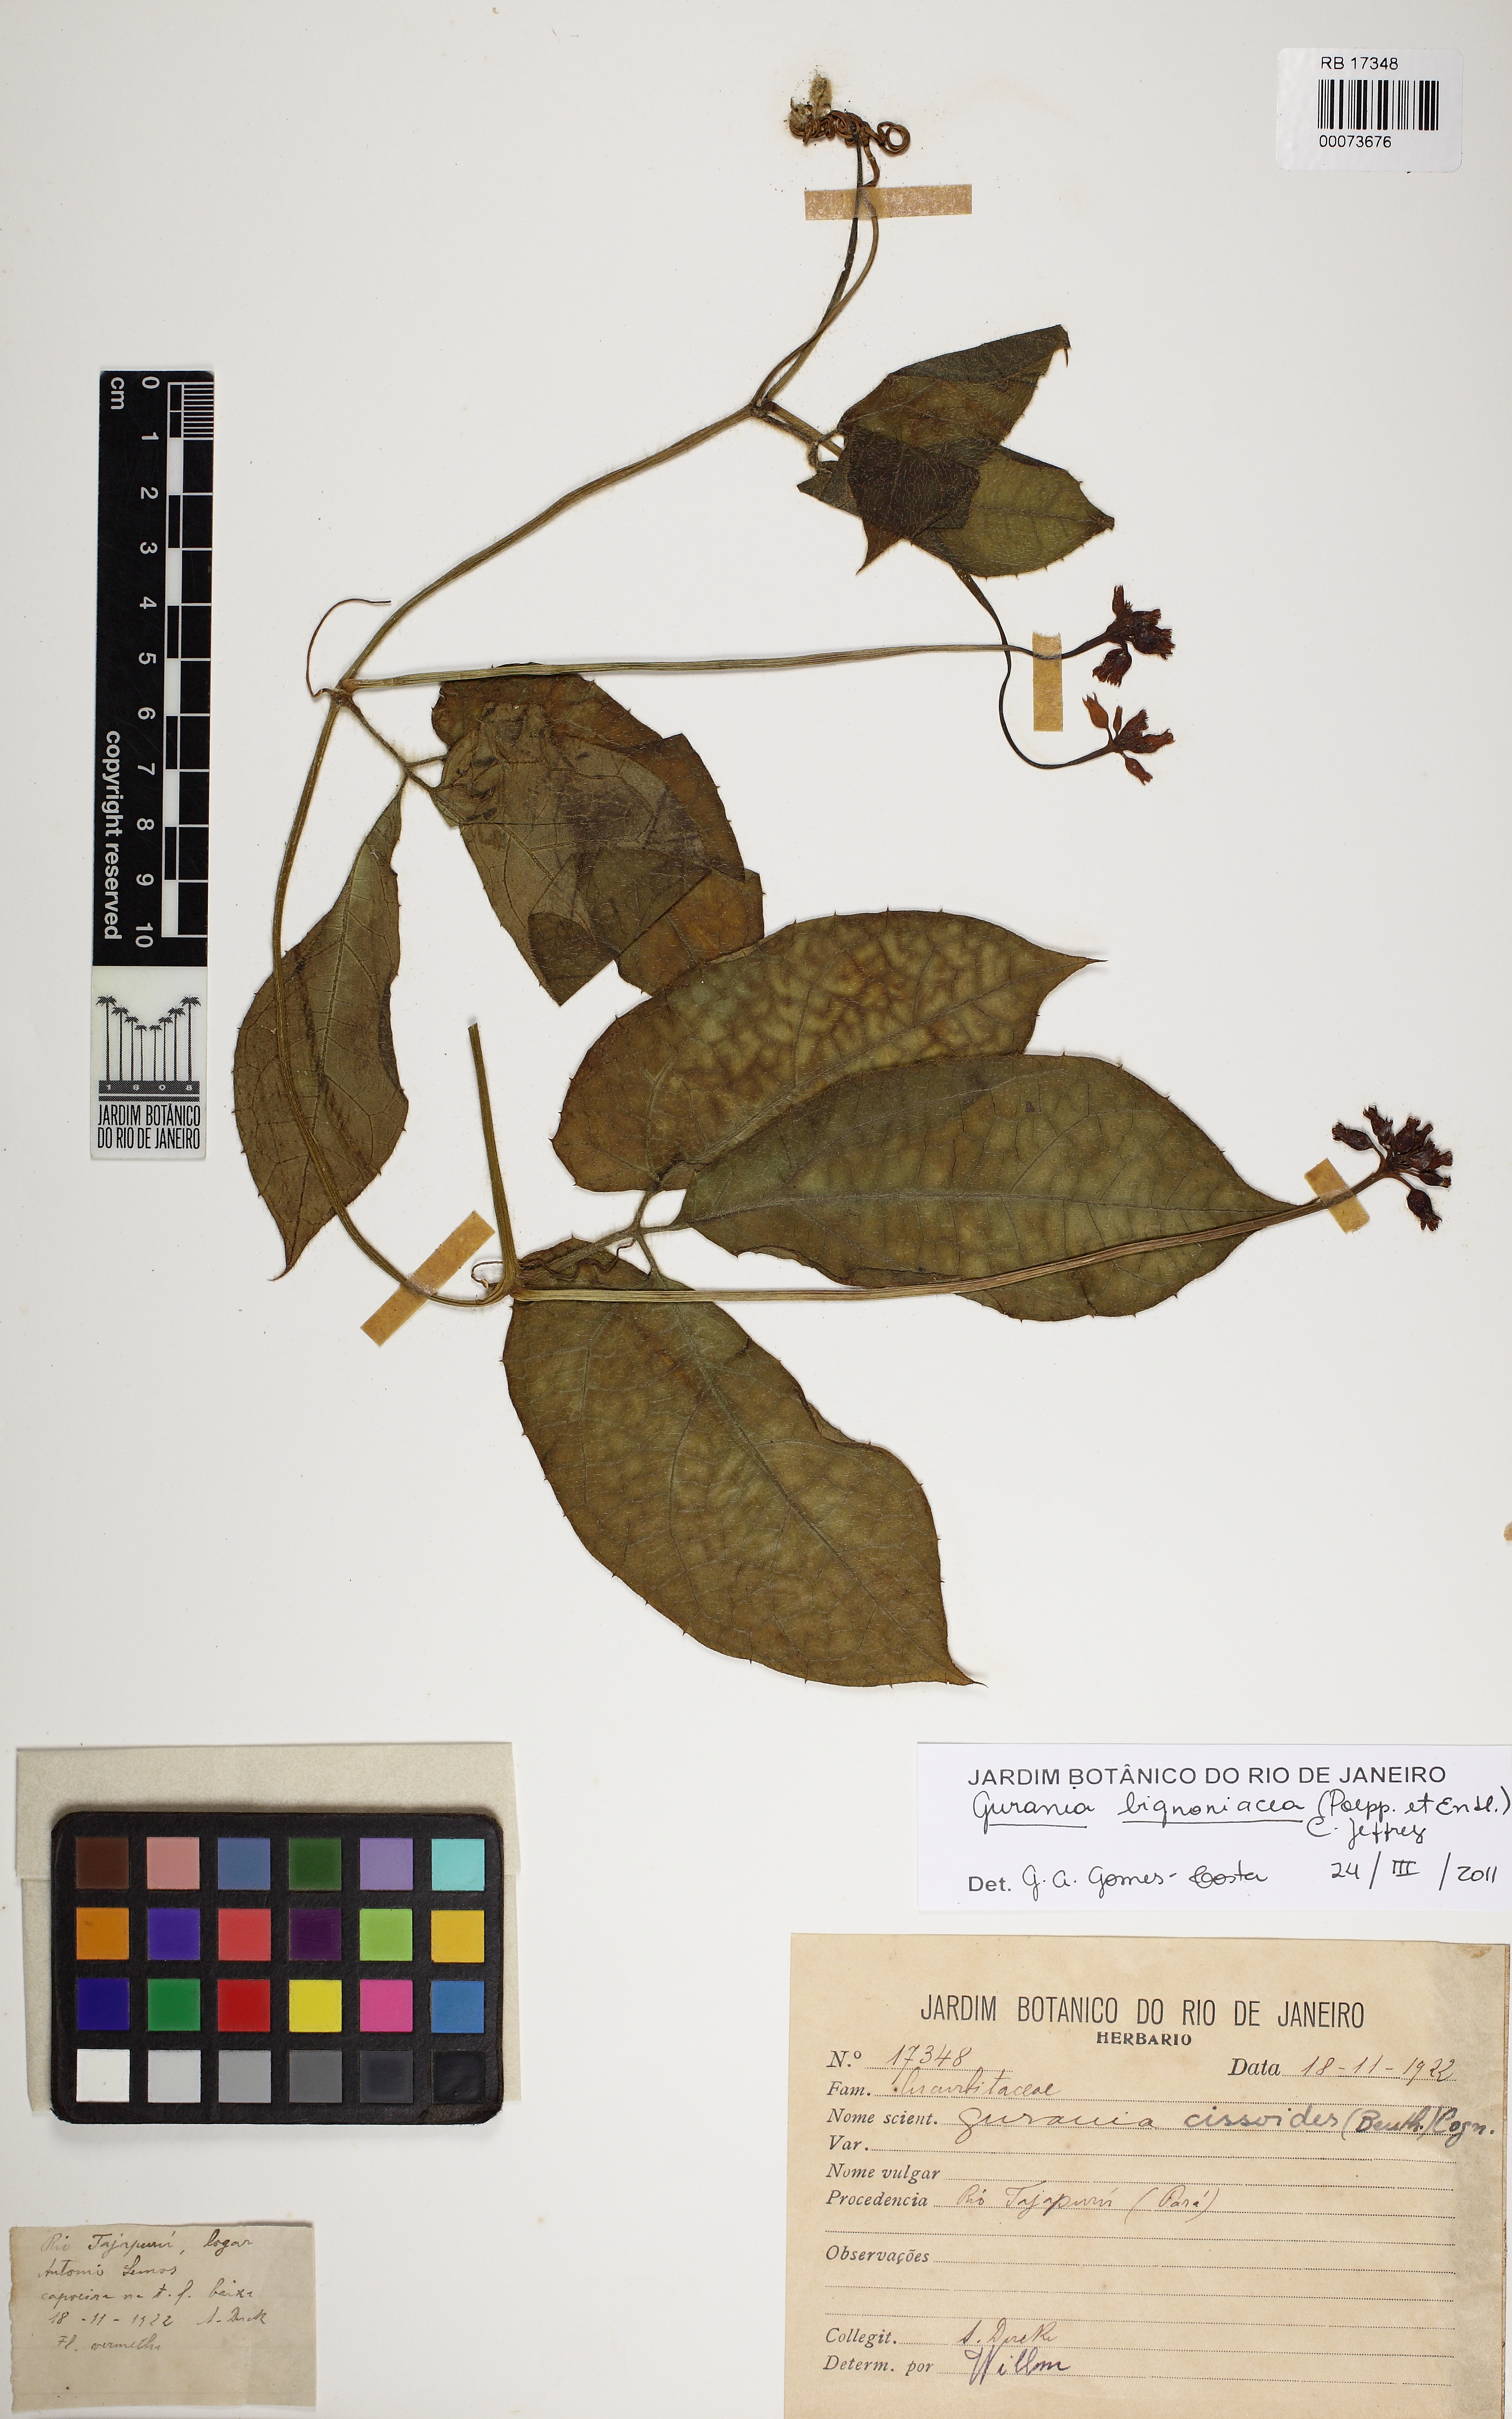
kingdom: Plantae
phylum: Tracheophyta
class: Magnoliopsida
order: Cucurbitales
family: Cucurbitaceae
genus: Gurania
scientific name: Gurania bignoniacea
